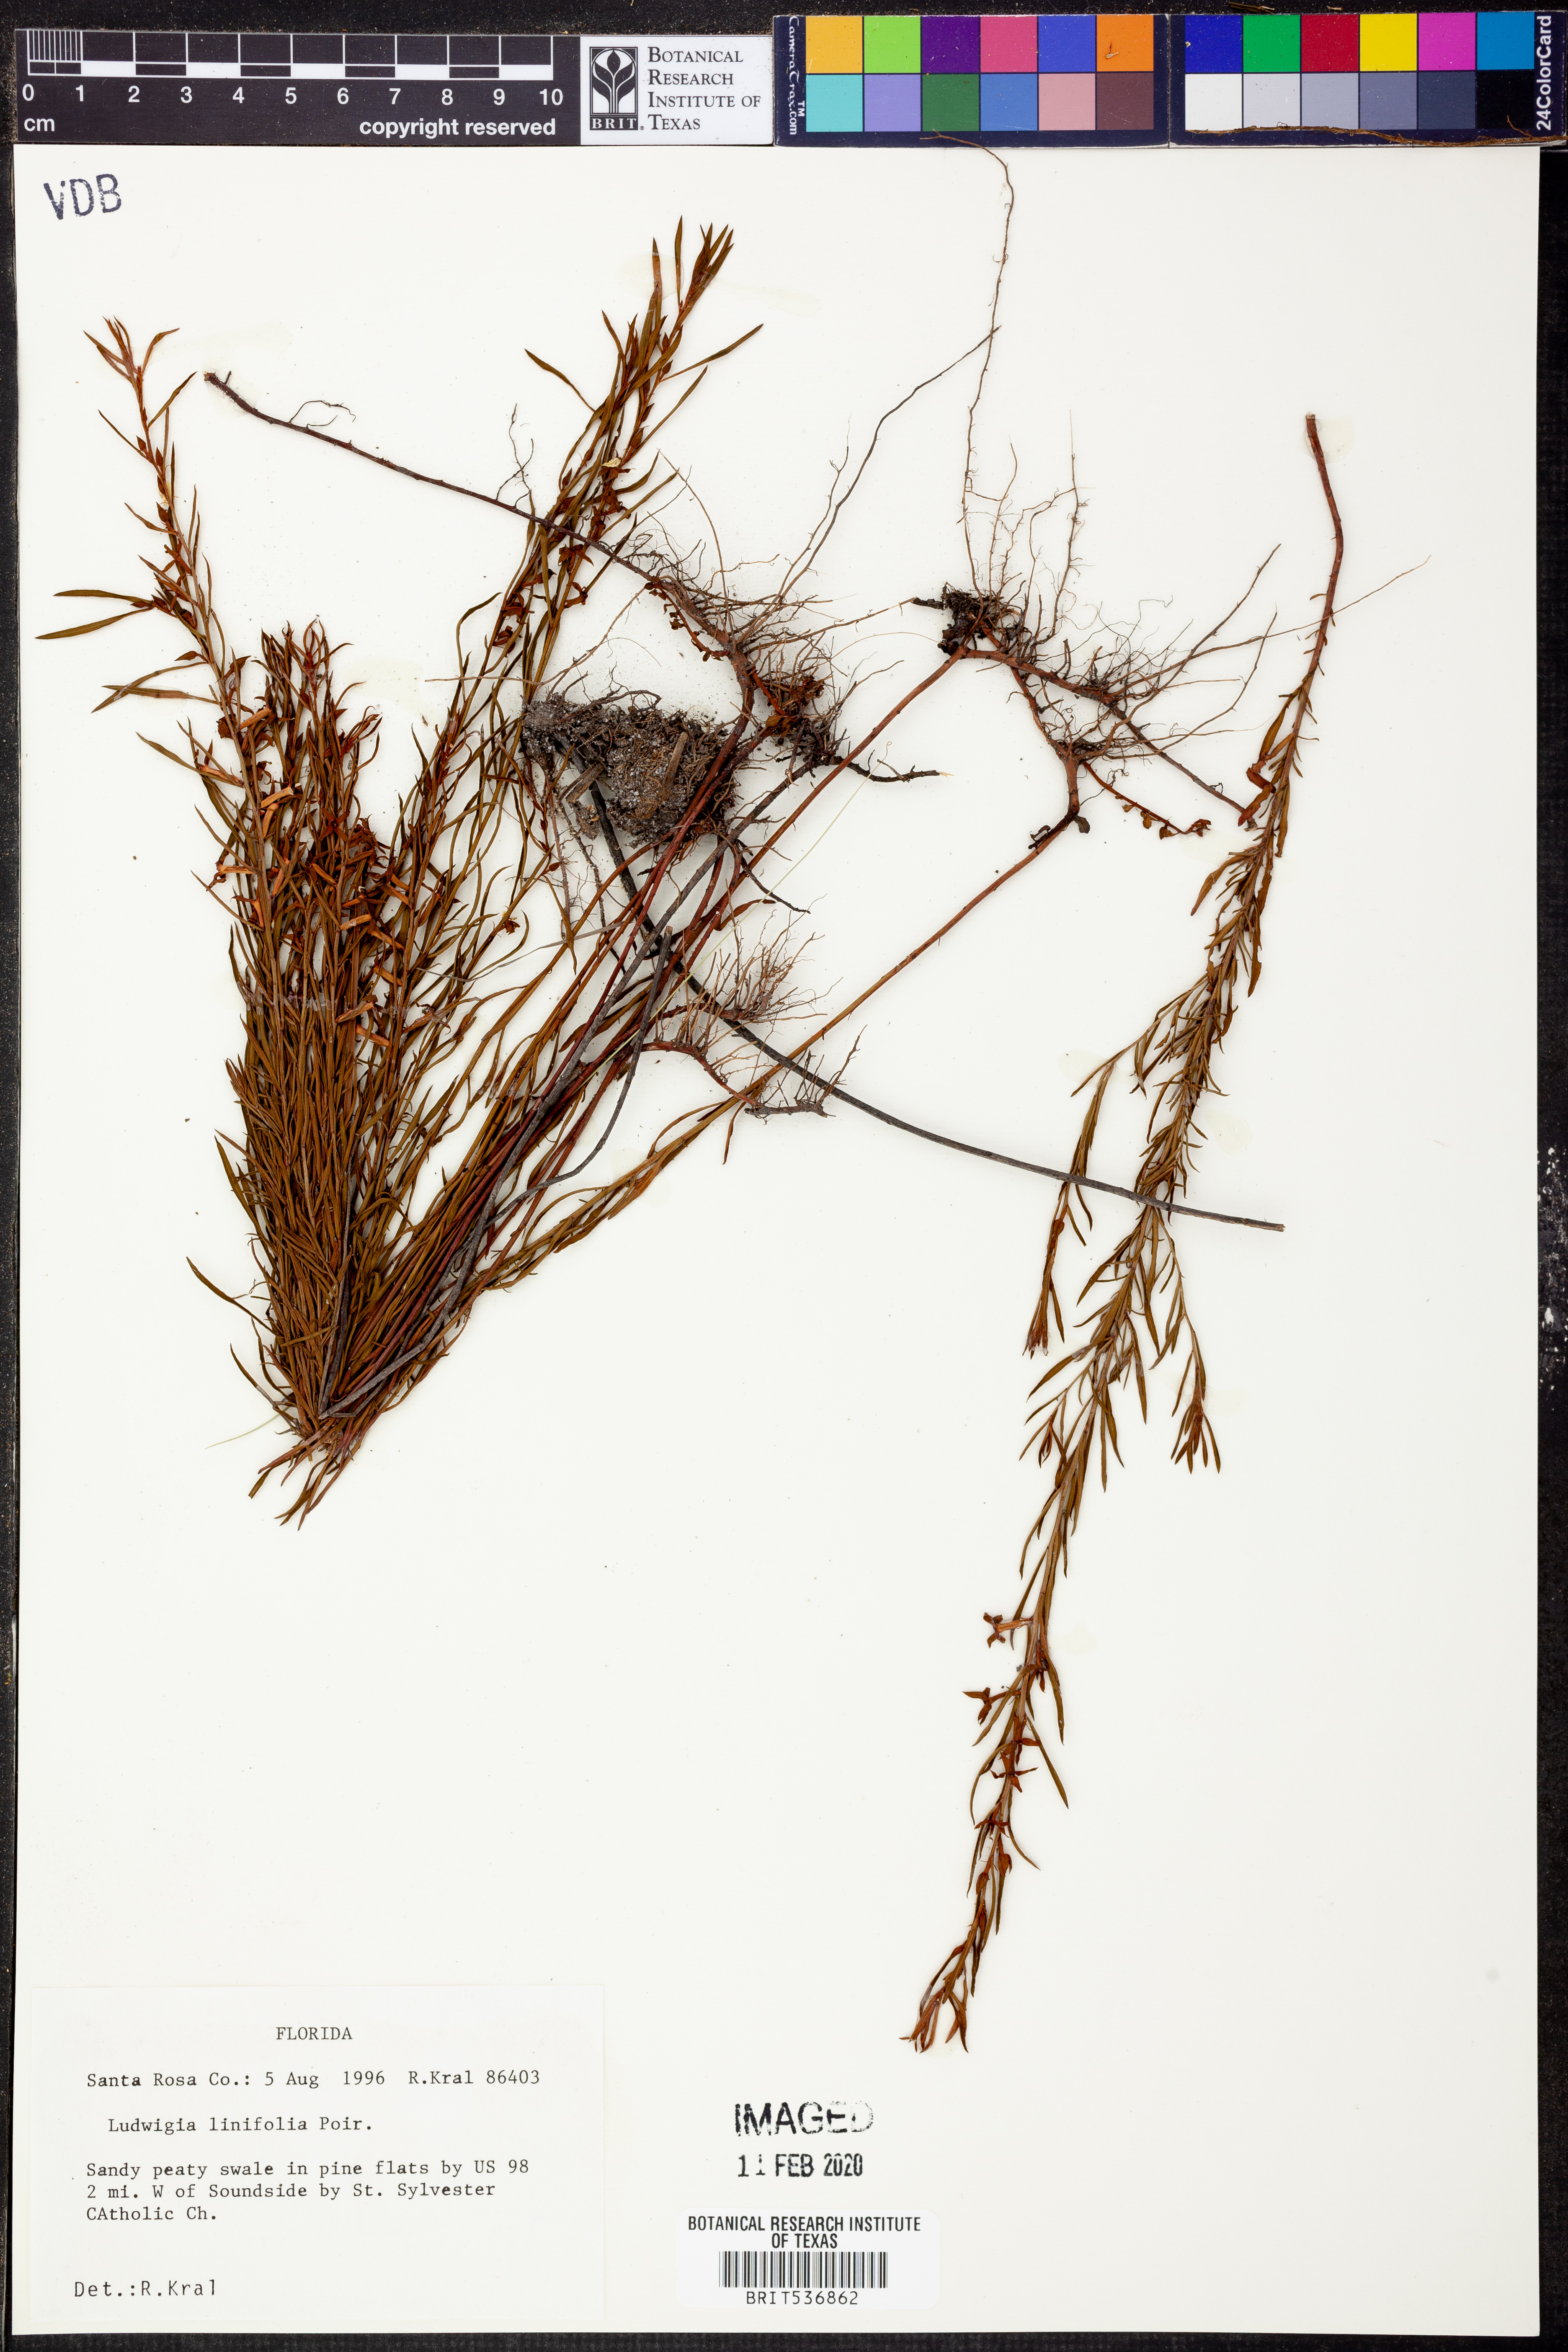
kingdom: Plantae
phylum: Tracheophyta
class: Magnoliopsida
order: Myrtales
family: Onagraceae
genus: Ludwigia
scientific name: Ludwigia linifolia
